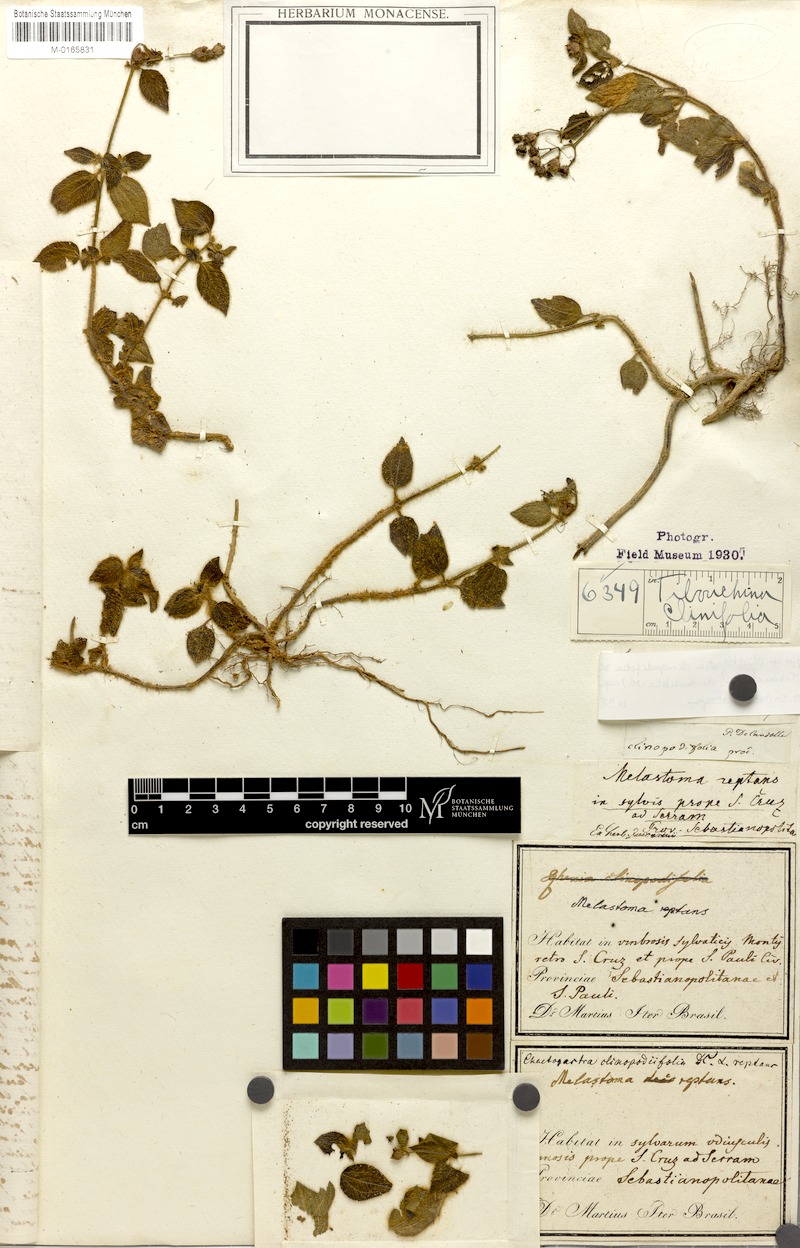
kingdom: Plantae
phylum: Tracheophyta
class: Magnoliopsida
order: Myrtales
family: Melastomataceae
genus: Chaetogastra
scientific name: Chaetogastra clinopodifolia
